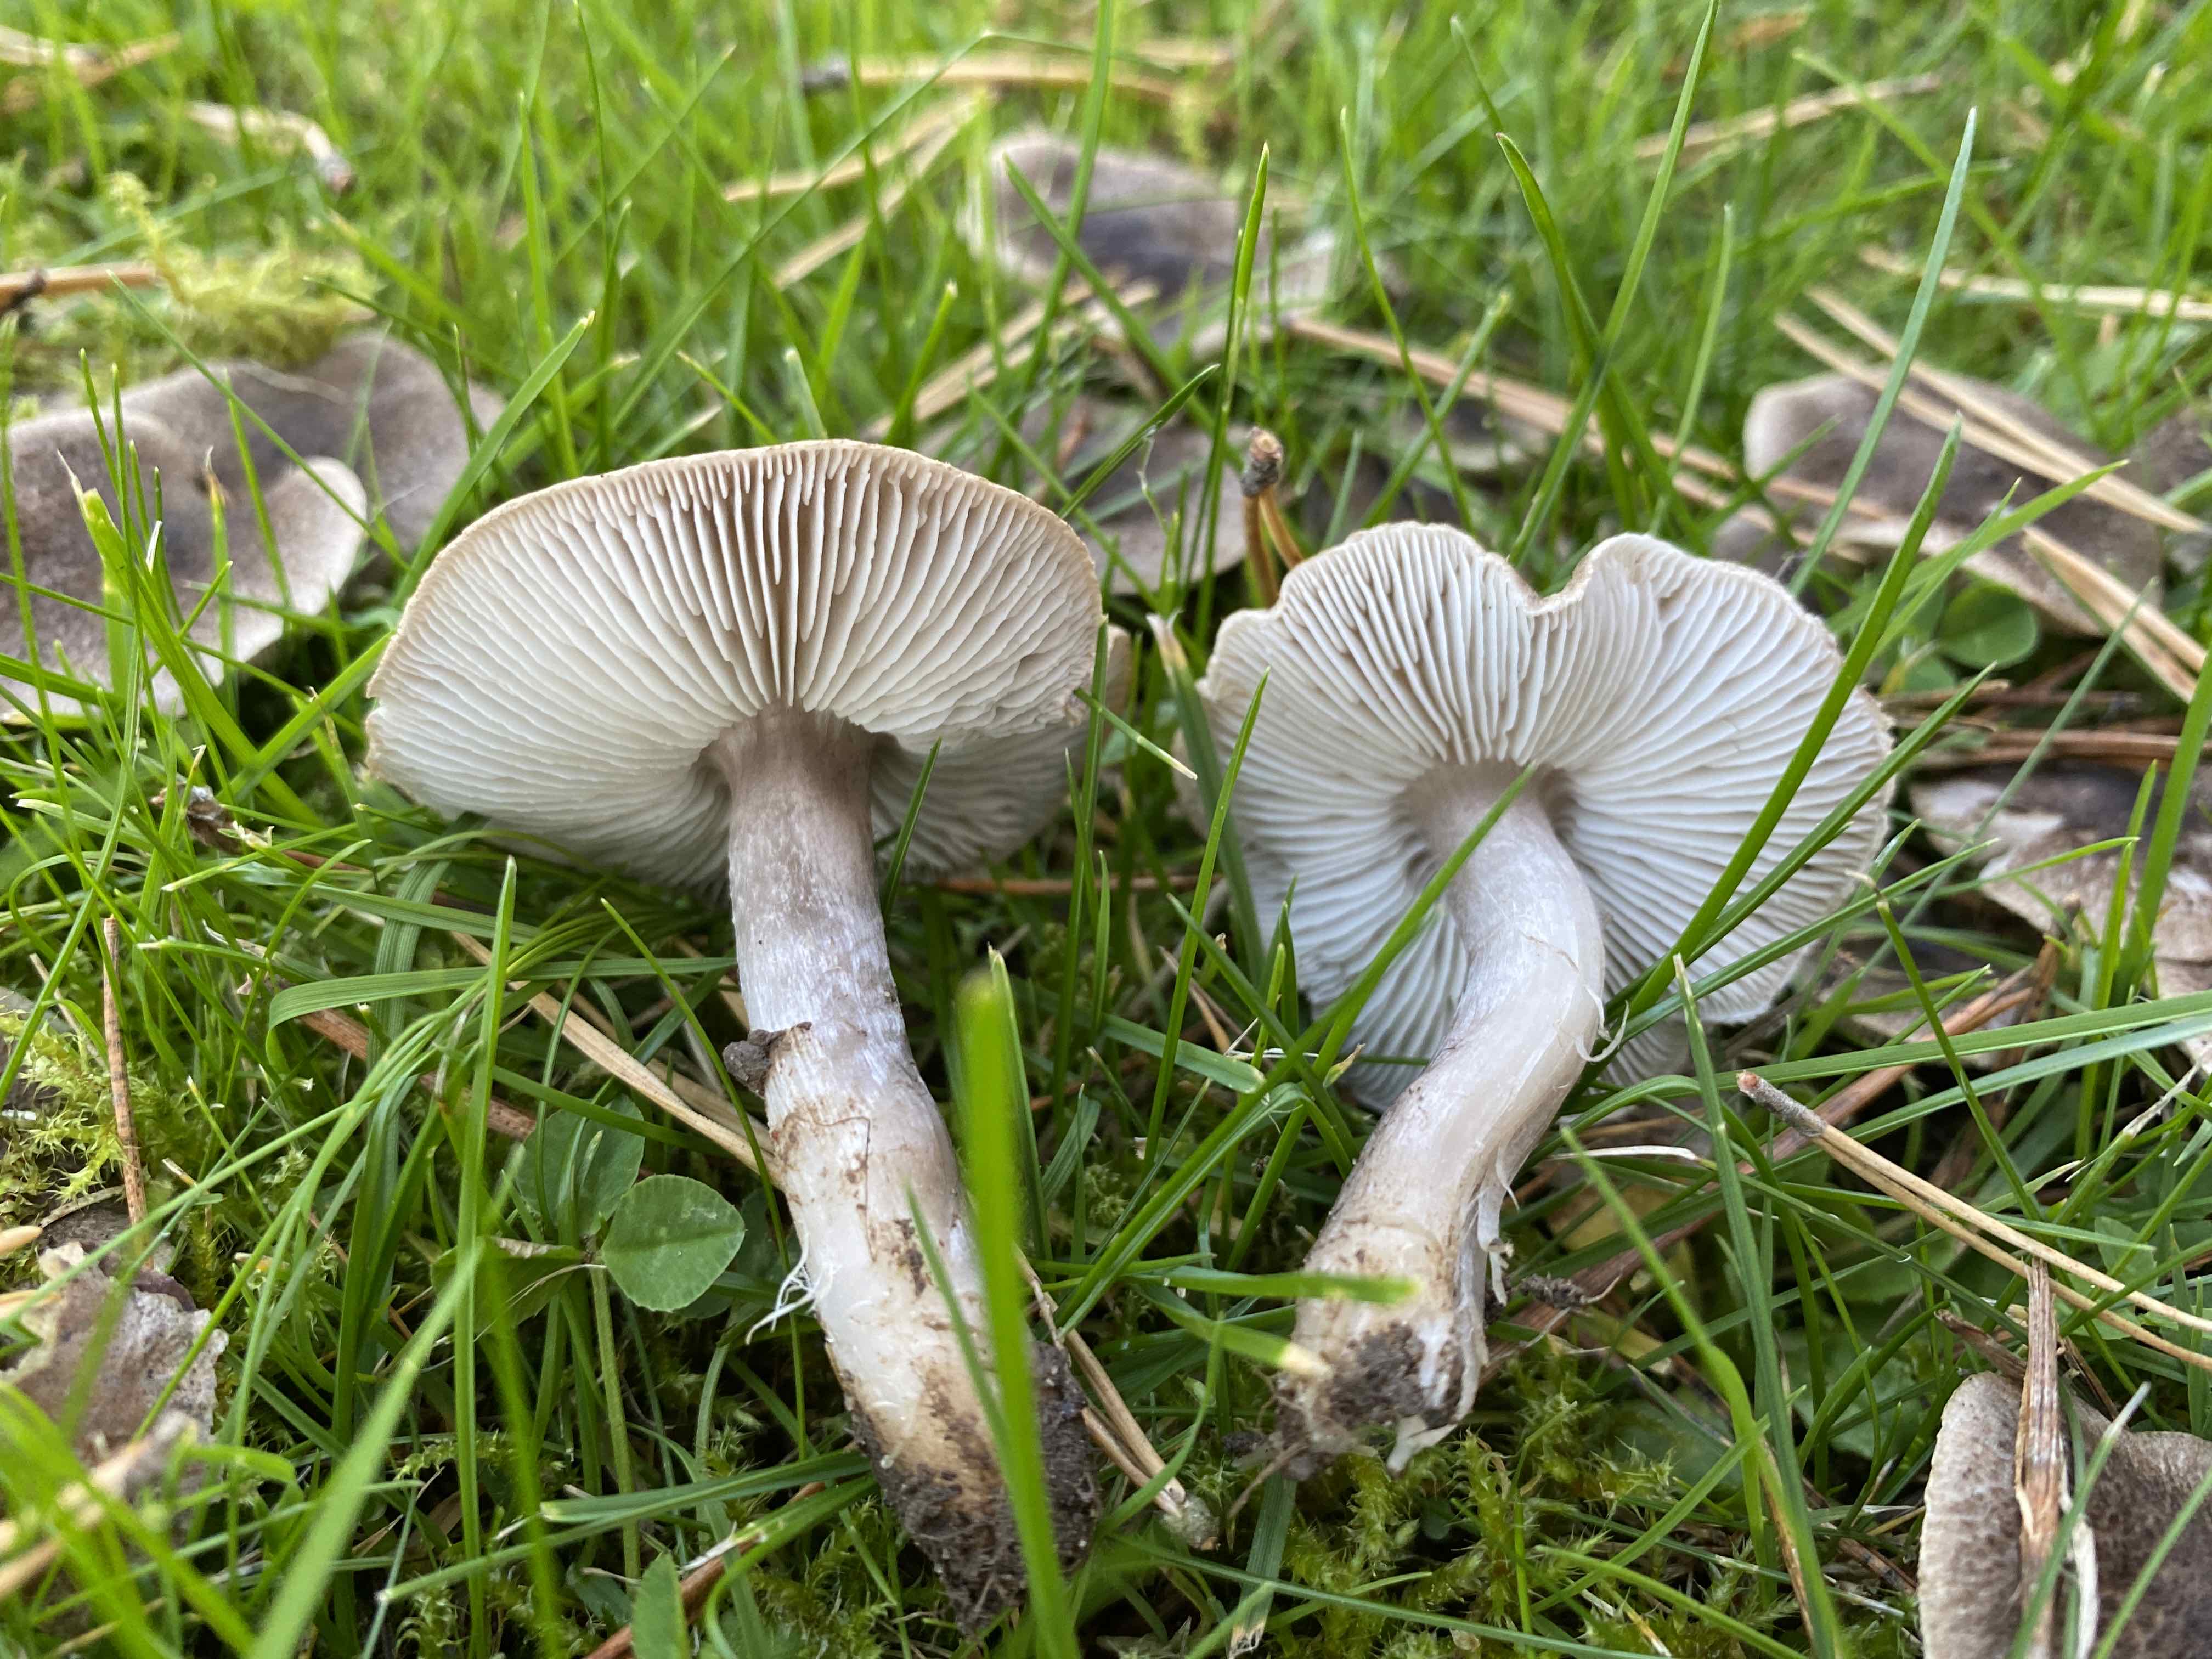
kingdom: Fungi
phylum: Basidiomycota
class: Agaricomycetes
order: Agaricales
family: Tricholomataceae
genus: Tricholoma
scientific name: Tricholoma terreum
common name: jordfarvet ridderhat
